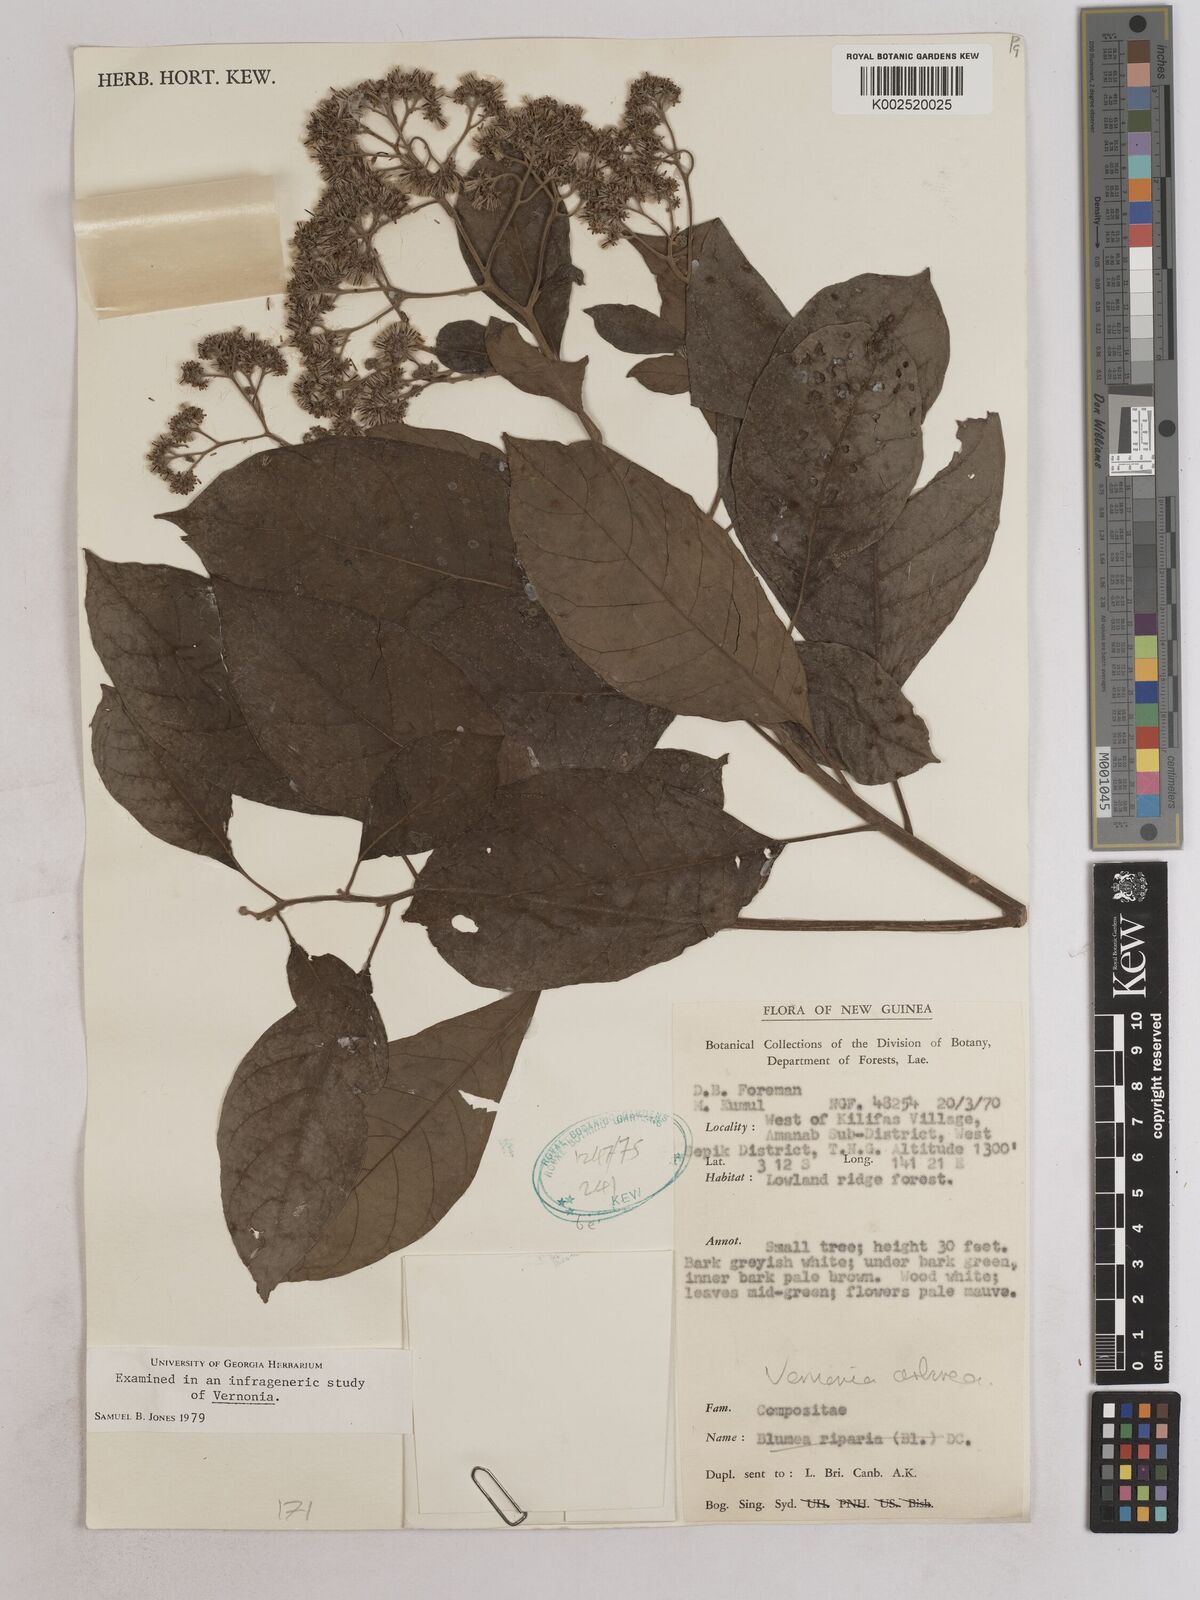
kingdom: Plantae
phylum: Tracheophyta
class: Magnoliopsida
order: Asterales
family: Asteraceae
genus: Strobocalyx
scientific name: Strobocalyx arborea
